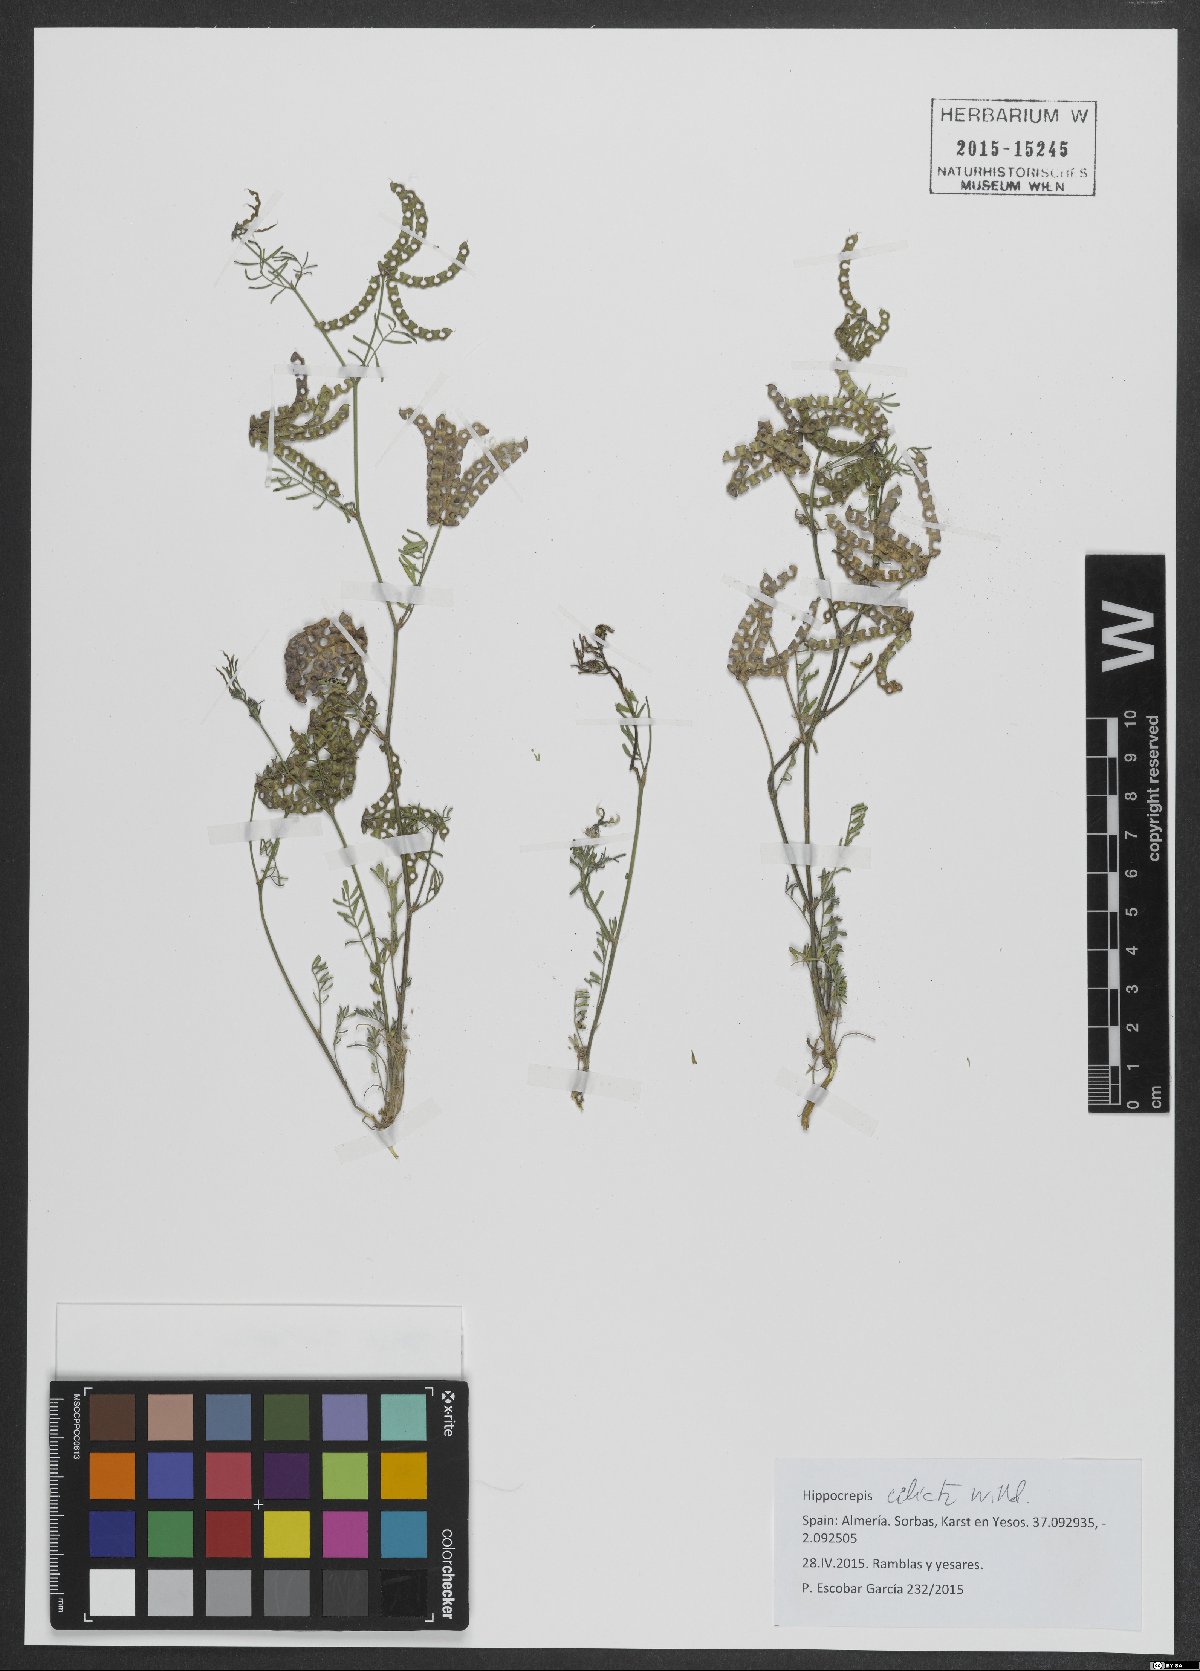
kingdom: Plantae
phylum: Tracheophyta
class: Magnoliopsida
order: Fabales
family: Fabaceae
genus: Hippocrepis
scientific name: Hippocrepis ciliata
